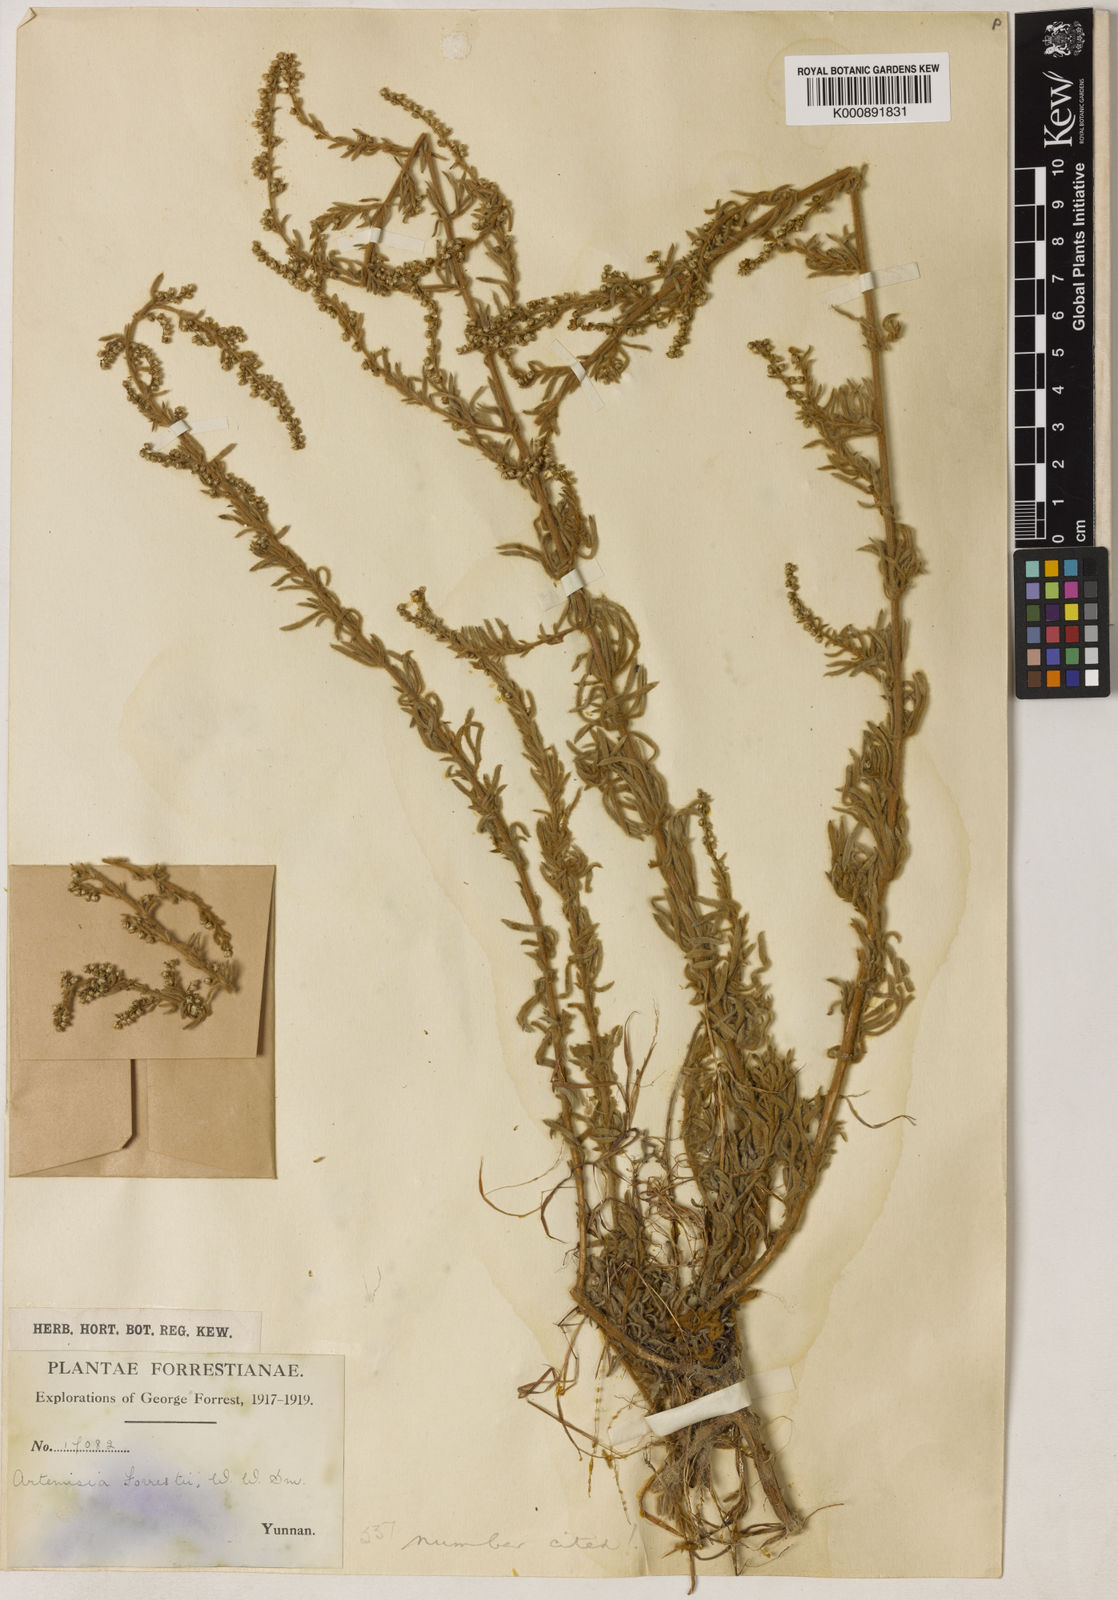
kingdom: Plantae
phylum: Tracheophyta
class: Magnoliopsida
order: Asterales
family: Asteraceae
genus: Artemisia
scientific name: Artemisia forrestii
